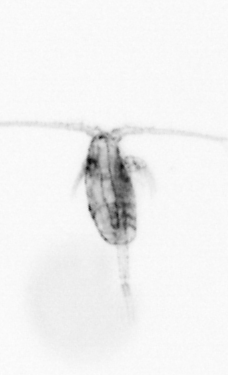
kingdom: Animalia
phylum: Arthropoda
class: Copepoda
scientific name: Copepoda
